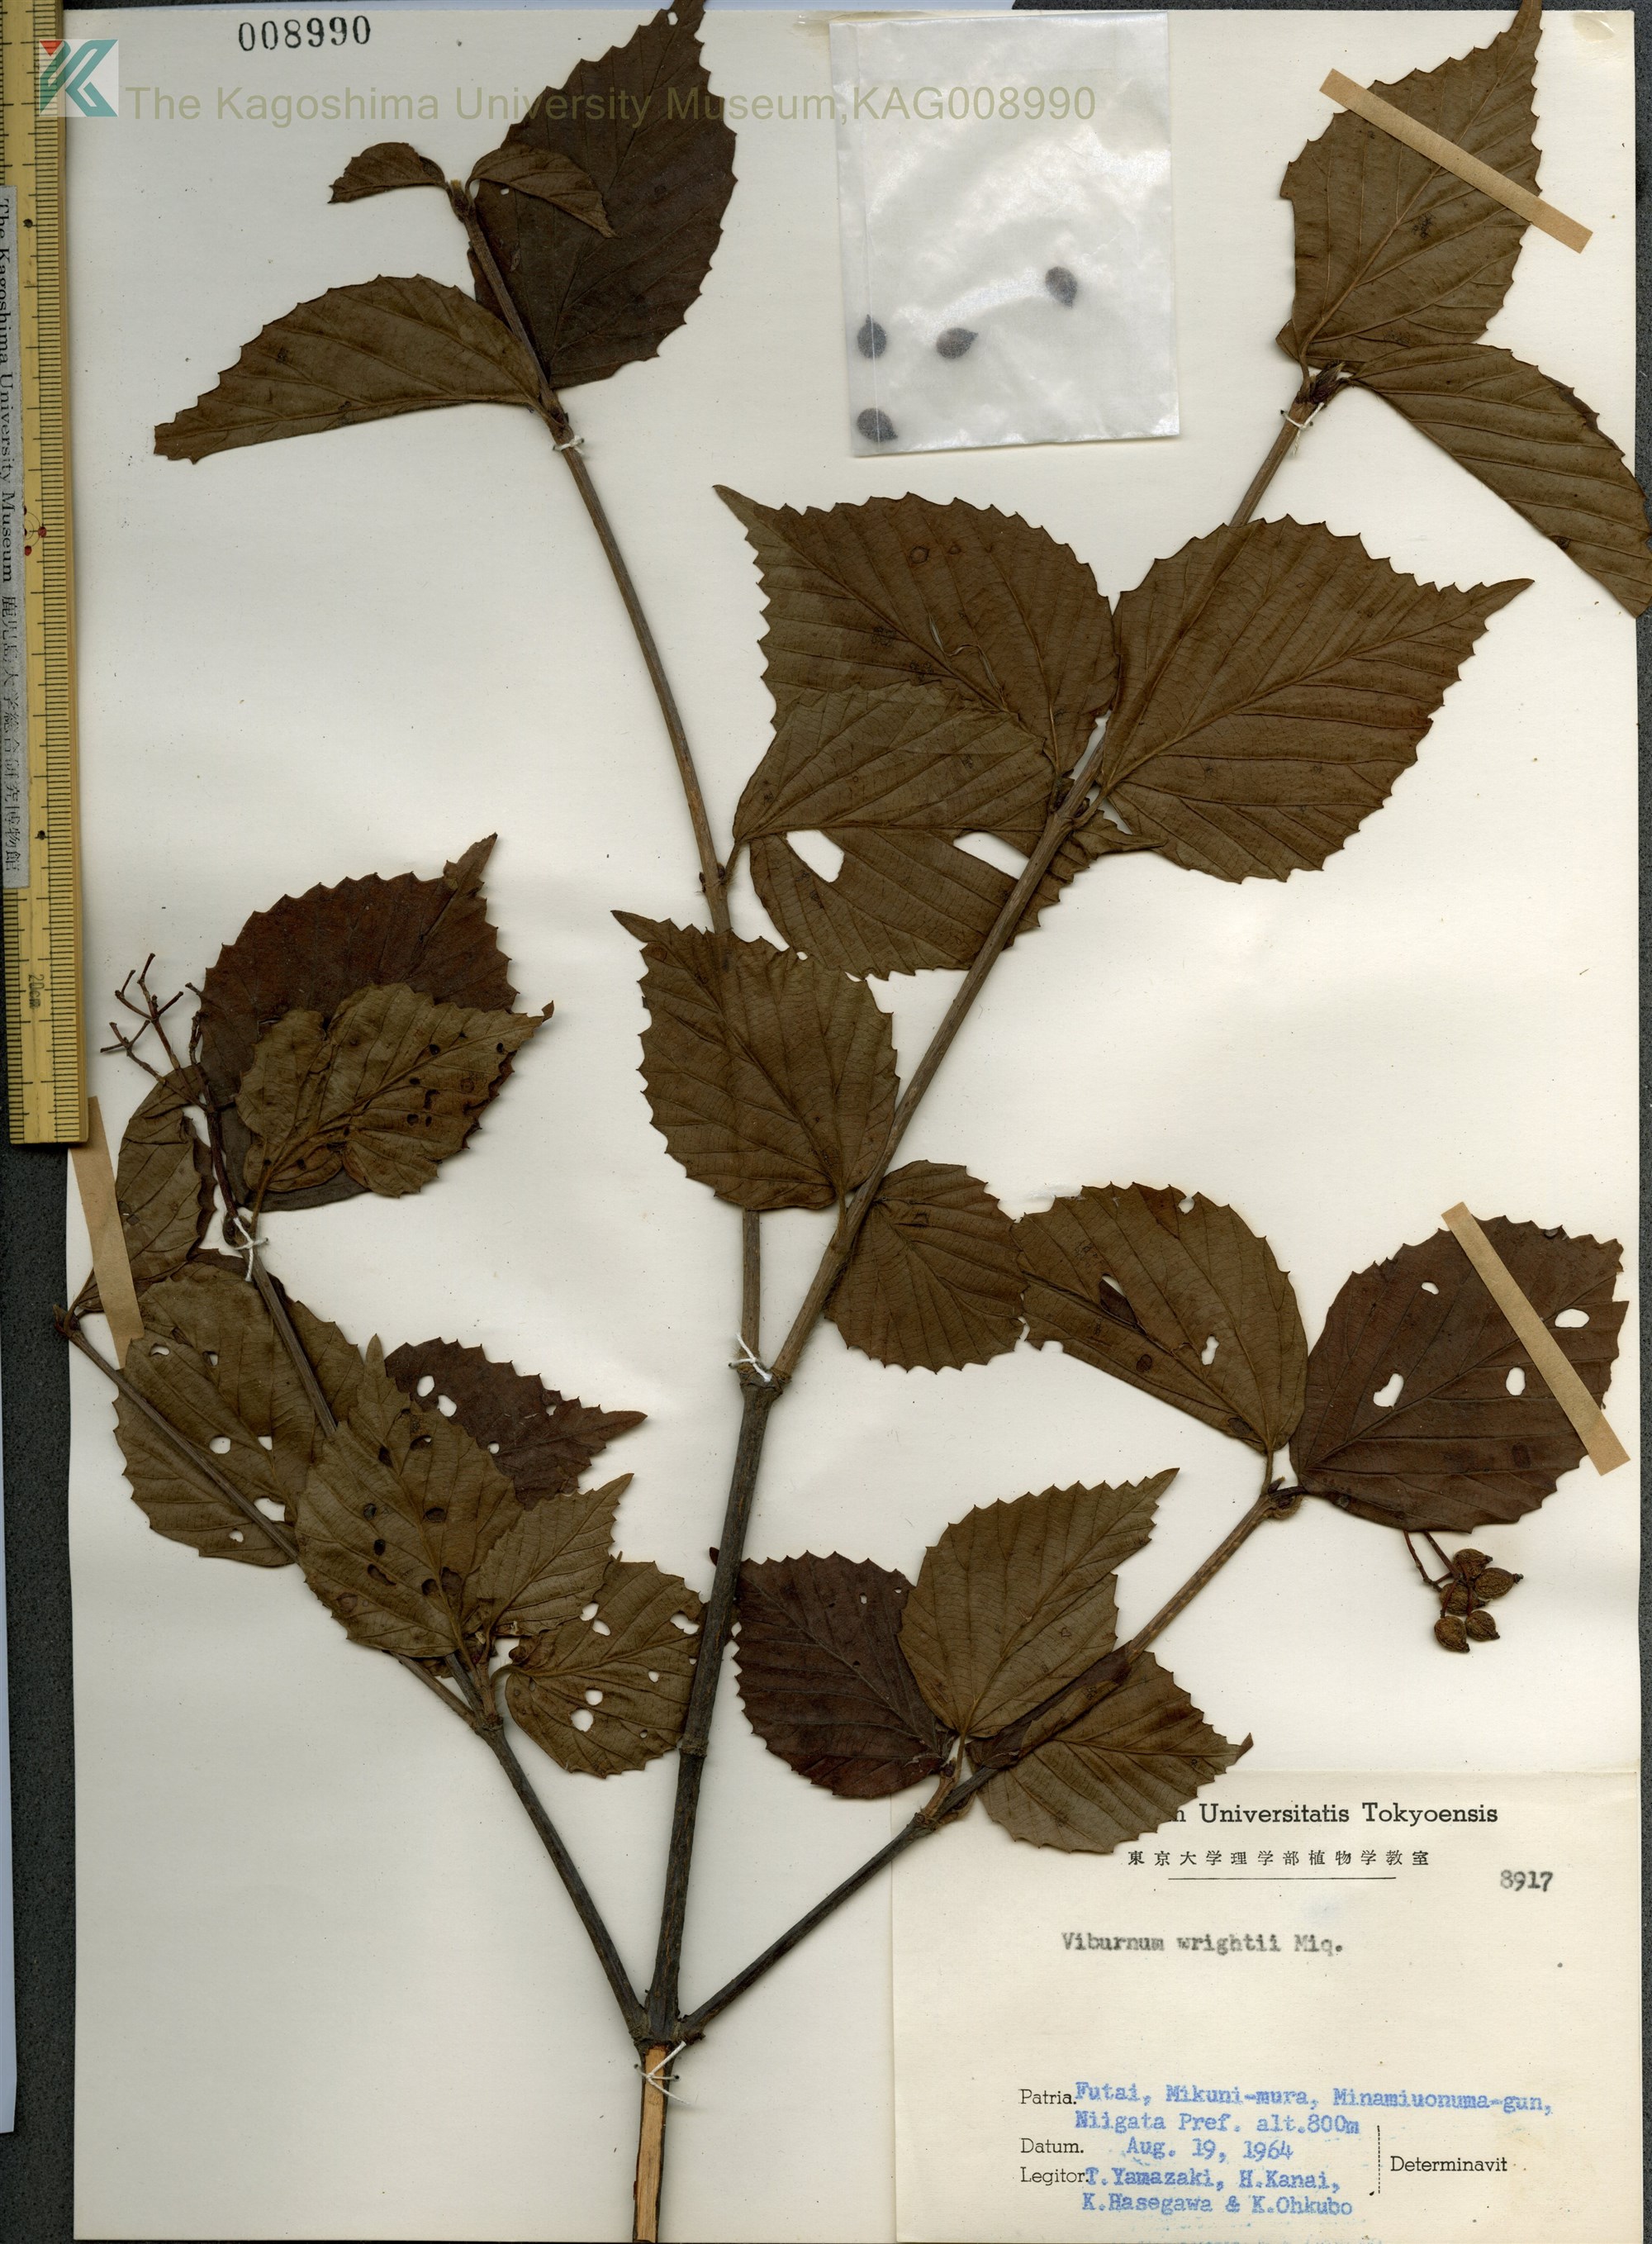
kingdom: Plantae
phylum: Tracheophyta
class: Magnoliopsida
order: Dipsacales
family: Viburnaceae
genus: Viburnum
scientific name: Viburnum wrightii
